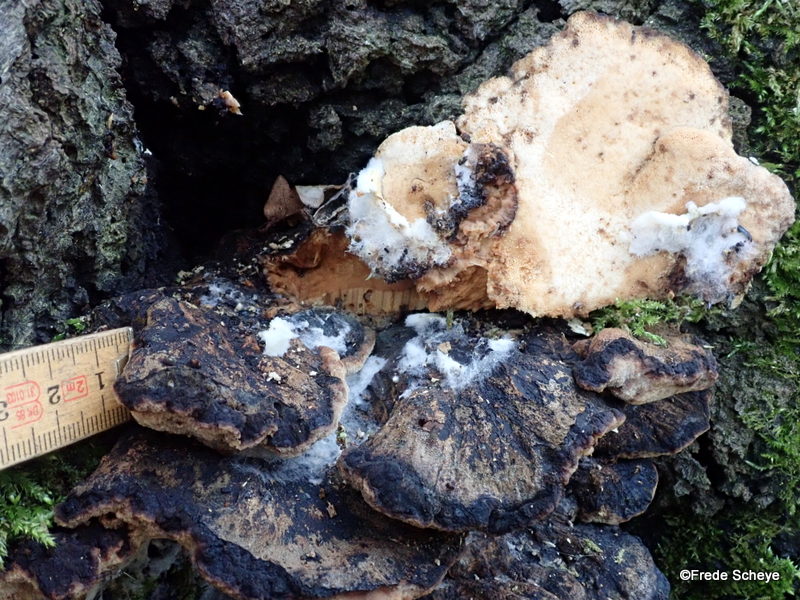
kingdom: Fungi
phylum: Basidiomycota
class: Agaricomycetes
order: Polyporales
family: Ischnodermataceae
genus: Ischnoderma
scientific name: Ischnoderma resinosum
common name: løv-tjæreporesvamp
